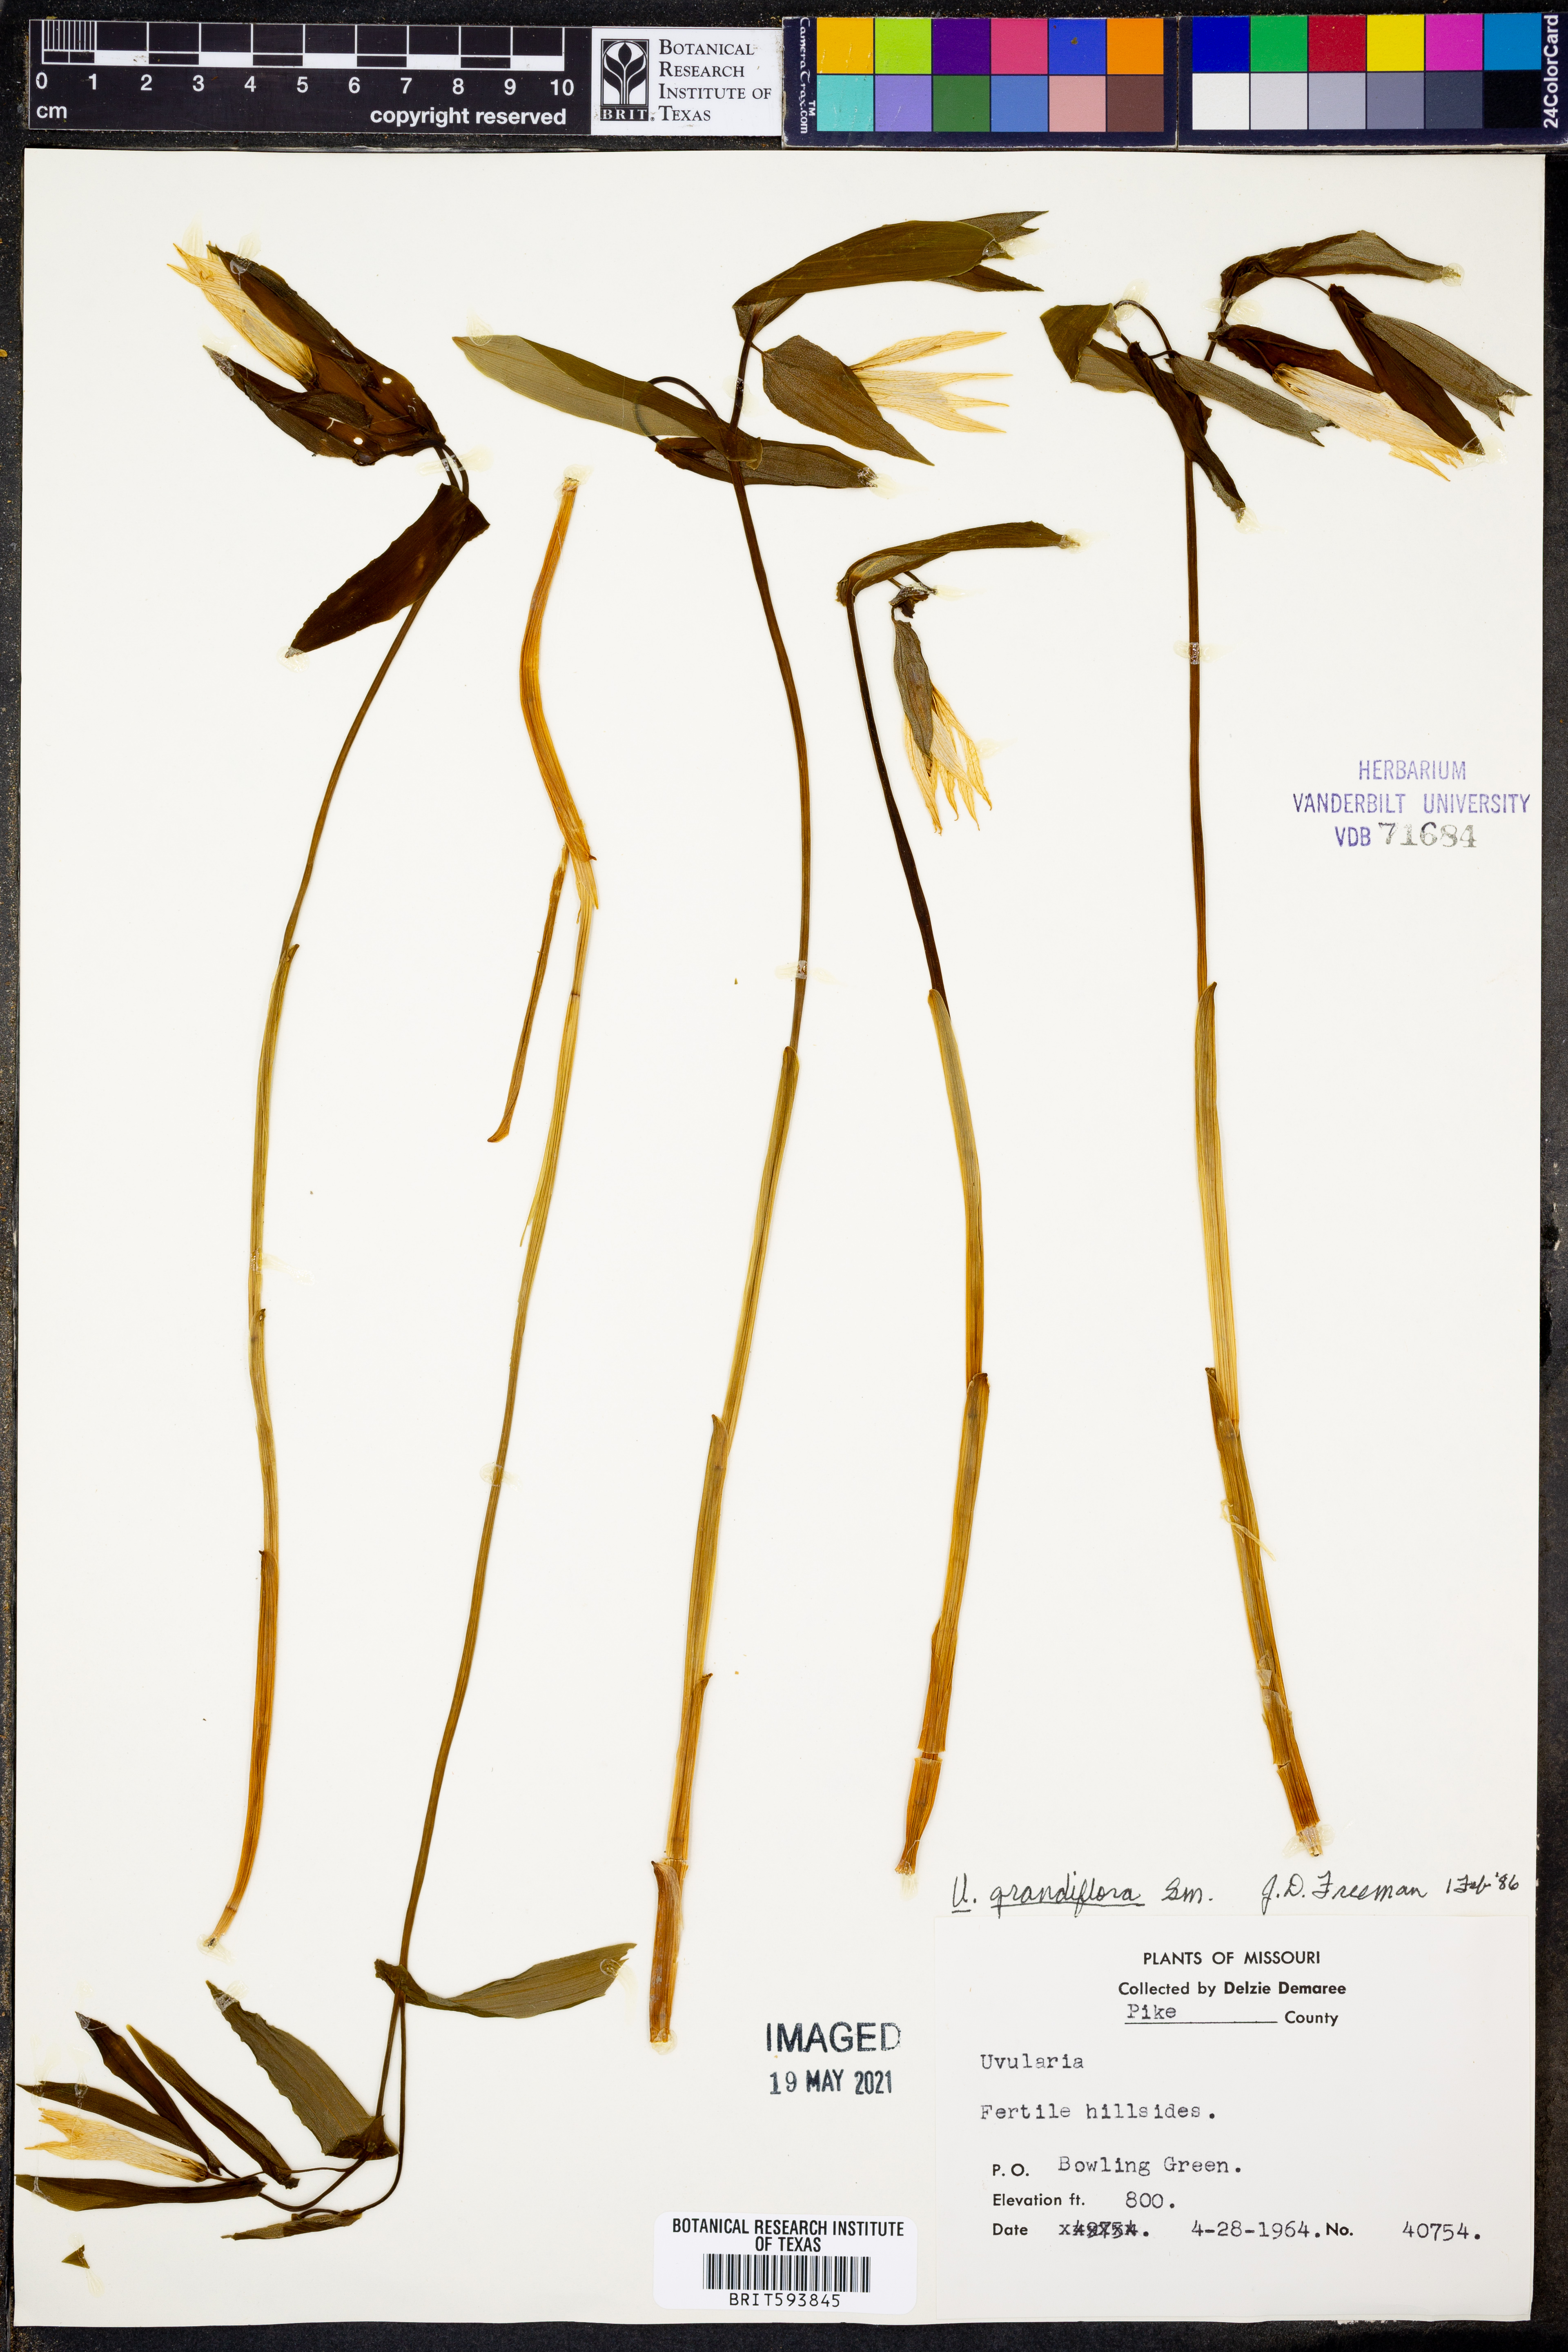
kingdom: Plantae
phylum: Tracheophyta
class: Liliopsida
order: Liliales
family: Colchicaceae
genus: Uvularia
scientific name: Uvularia grandiflora
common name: Bellwort
